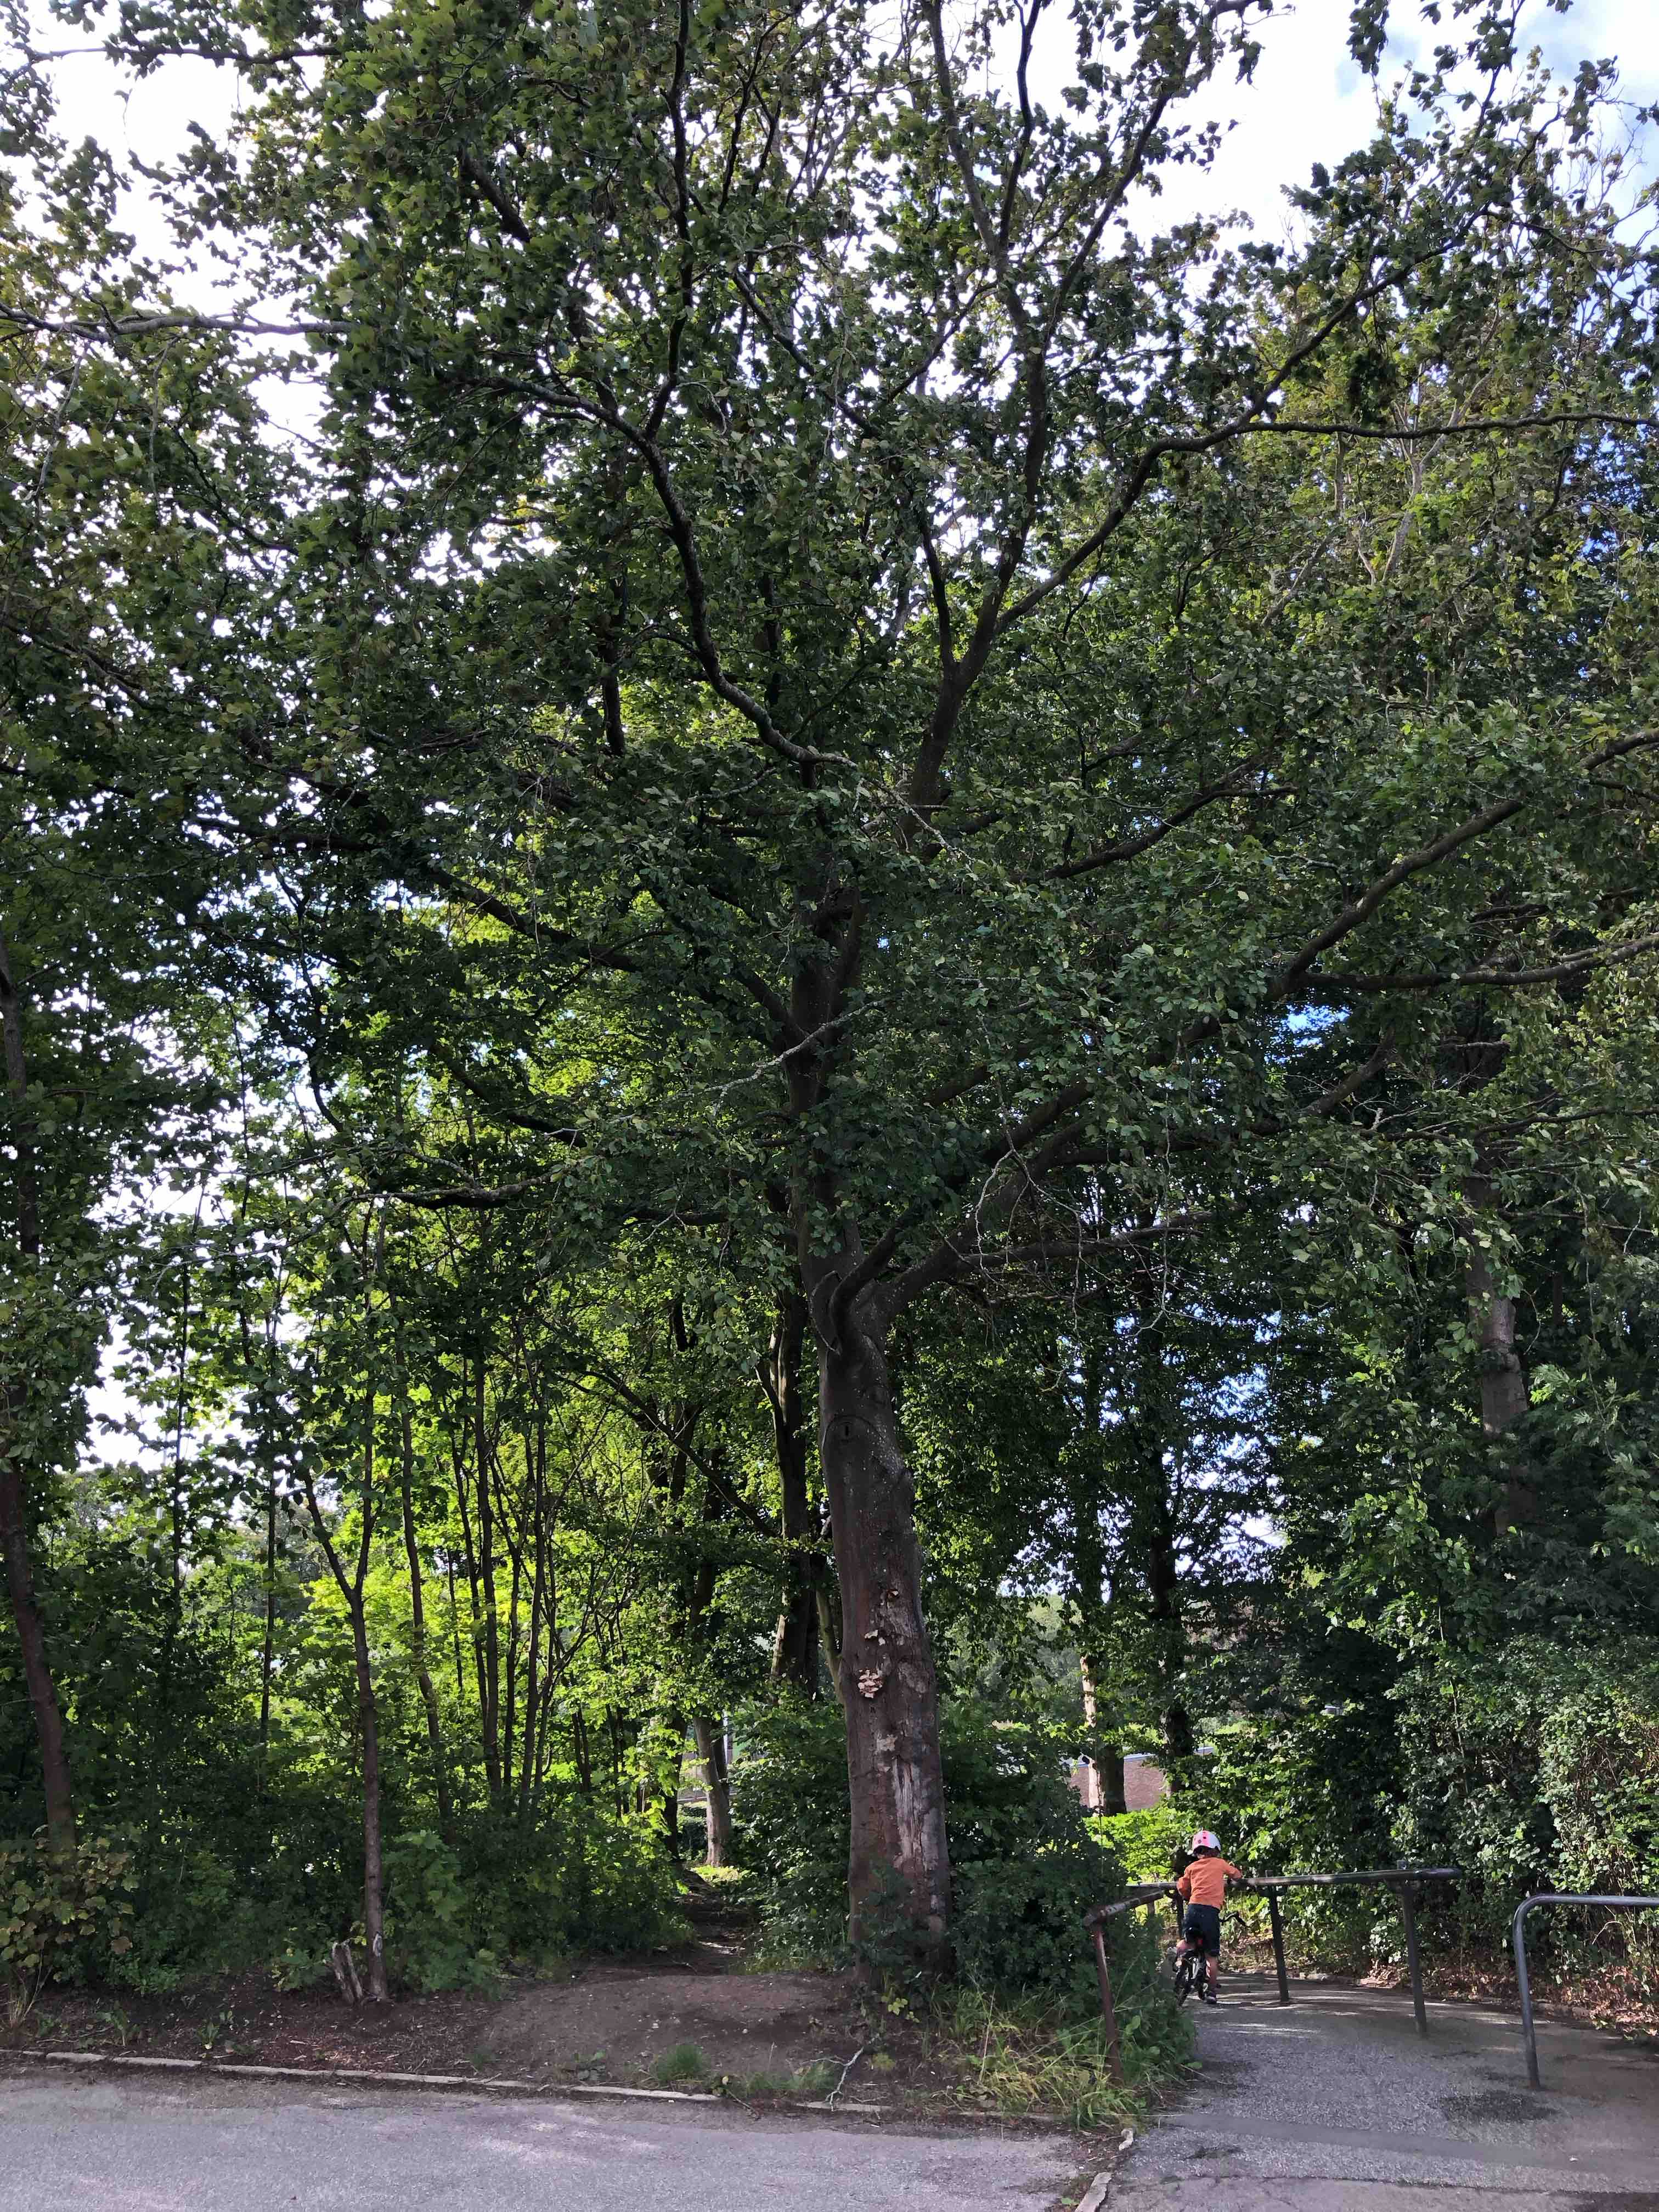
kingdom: Fungi
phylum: Basidiomycota
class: Agaricomycetes
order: Agaricales
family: Pleurotaceae
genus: Pleurotus
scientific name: Pleurotus pulmonarius
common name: sommer-østershat
